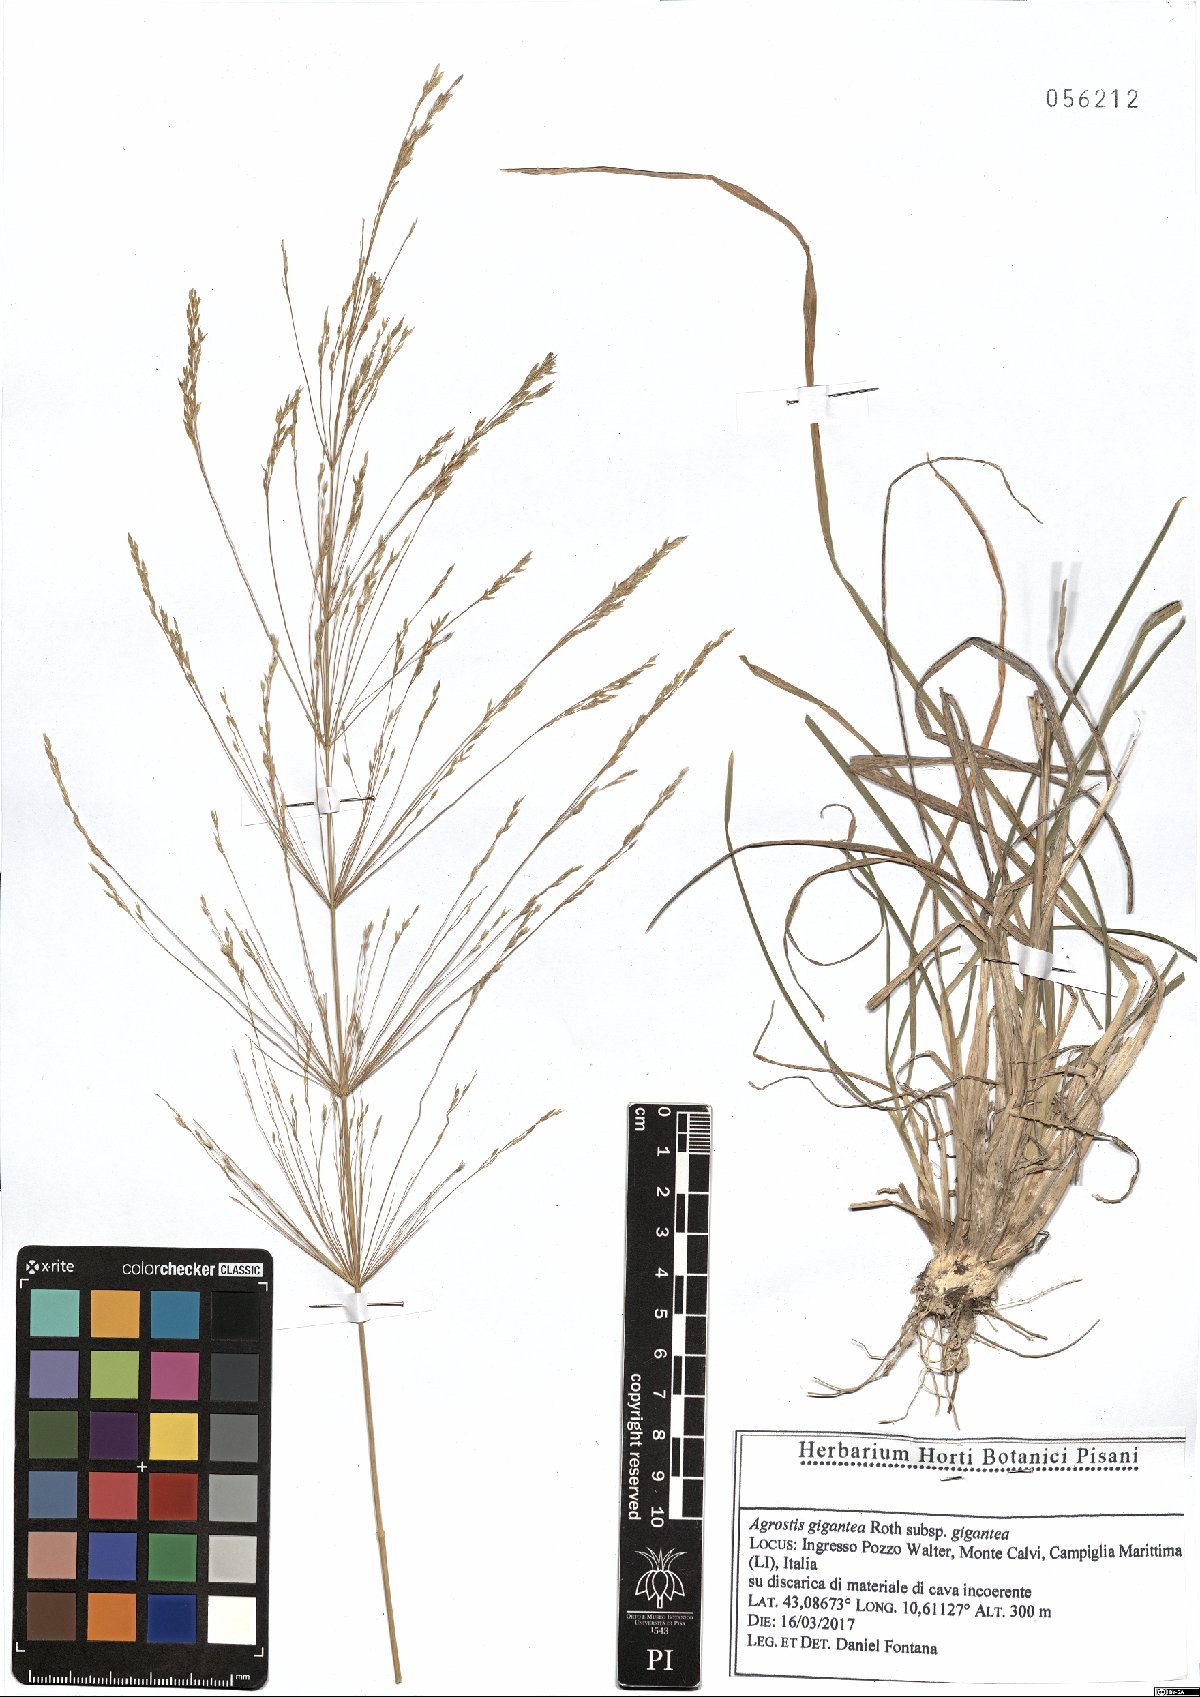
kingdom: Plantae
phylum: Tracheophyta
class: Liliopsida
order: Poales
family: Poaceae
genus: Oloptum
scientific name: Oloptum thomasii
